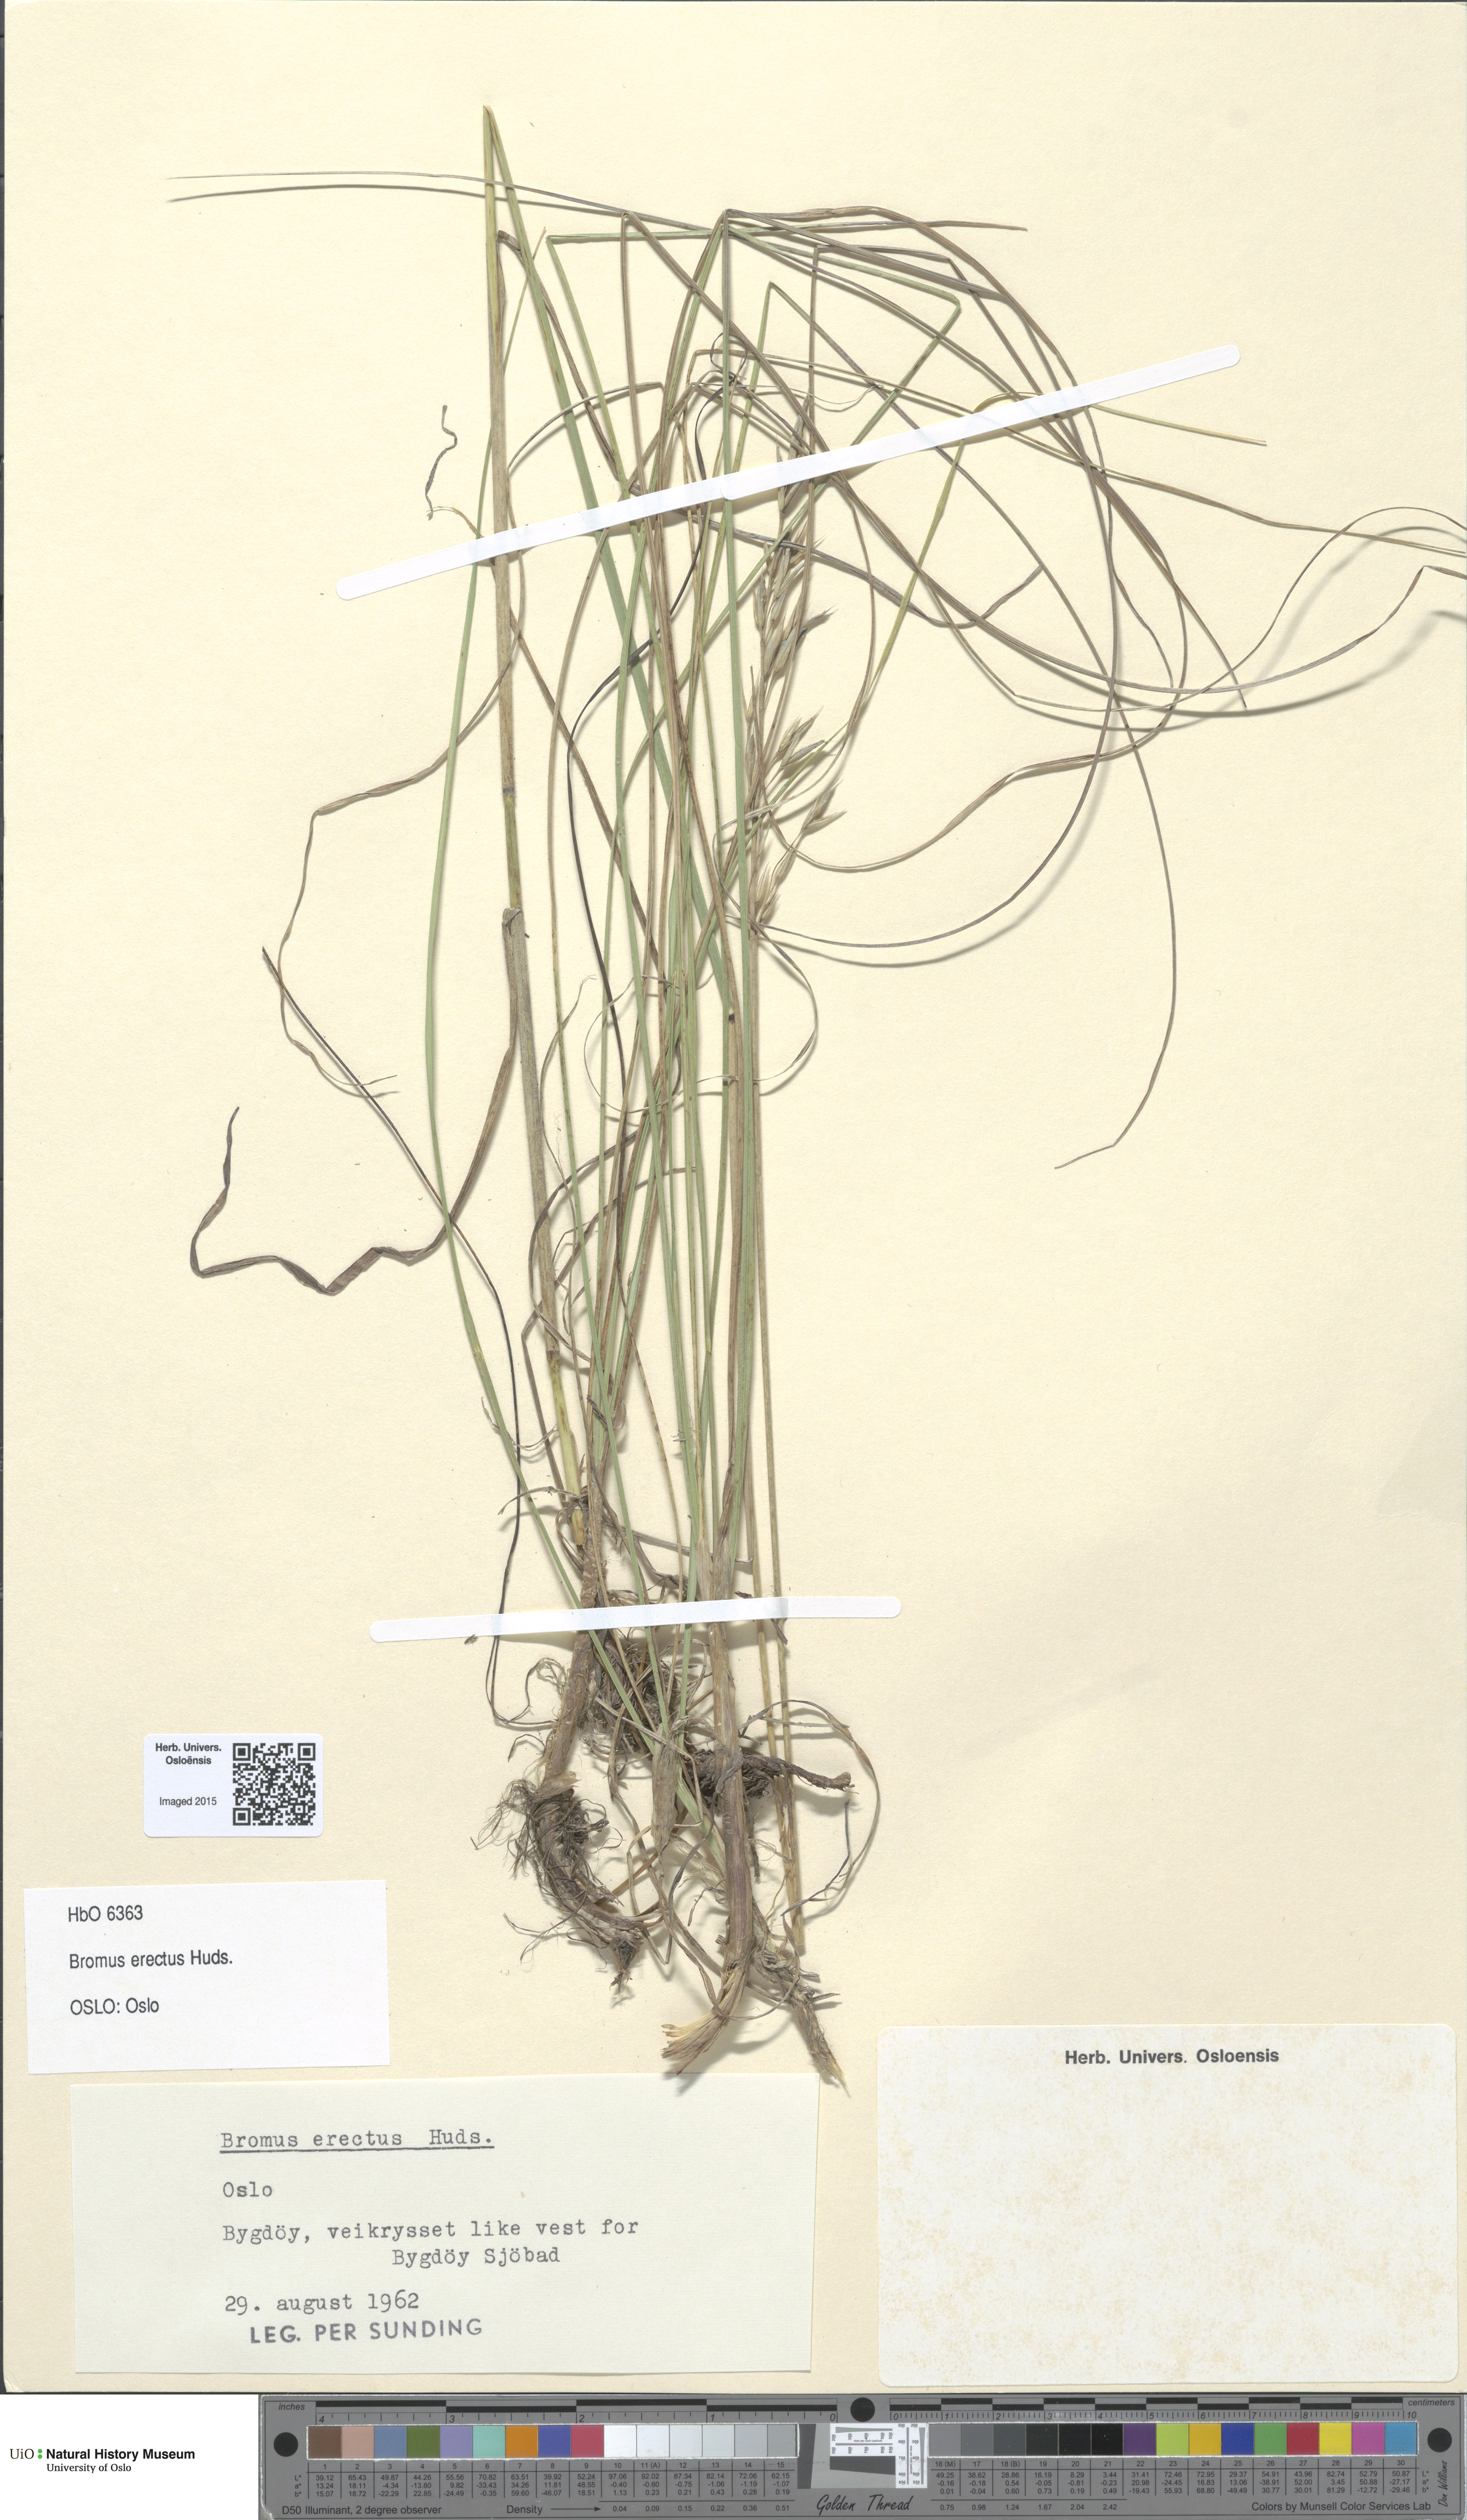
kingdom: Plantae
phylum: Tracheophyta
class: Liliopsida
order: Poales
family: Poaceae
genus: Bromus
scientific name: Bromus erectus
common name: Erect brome
